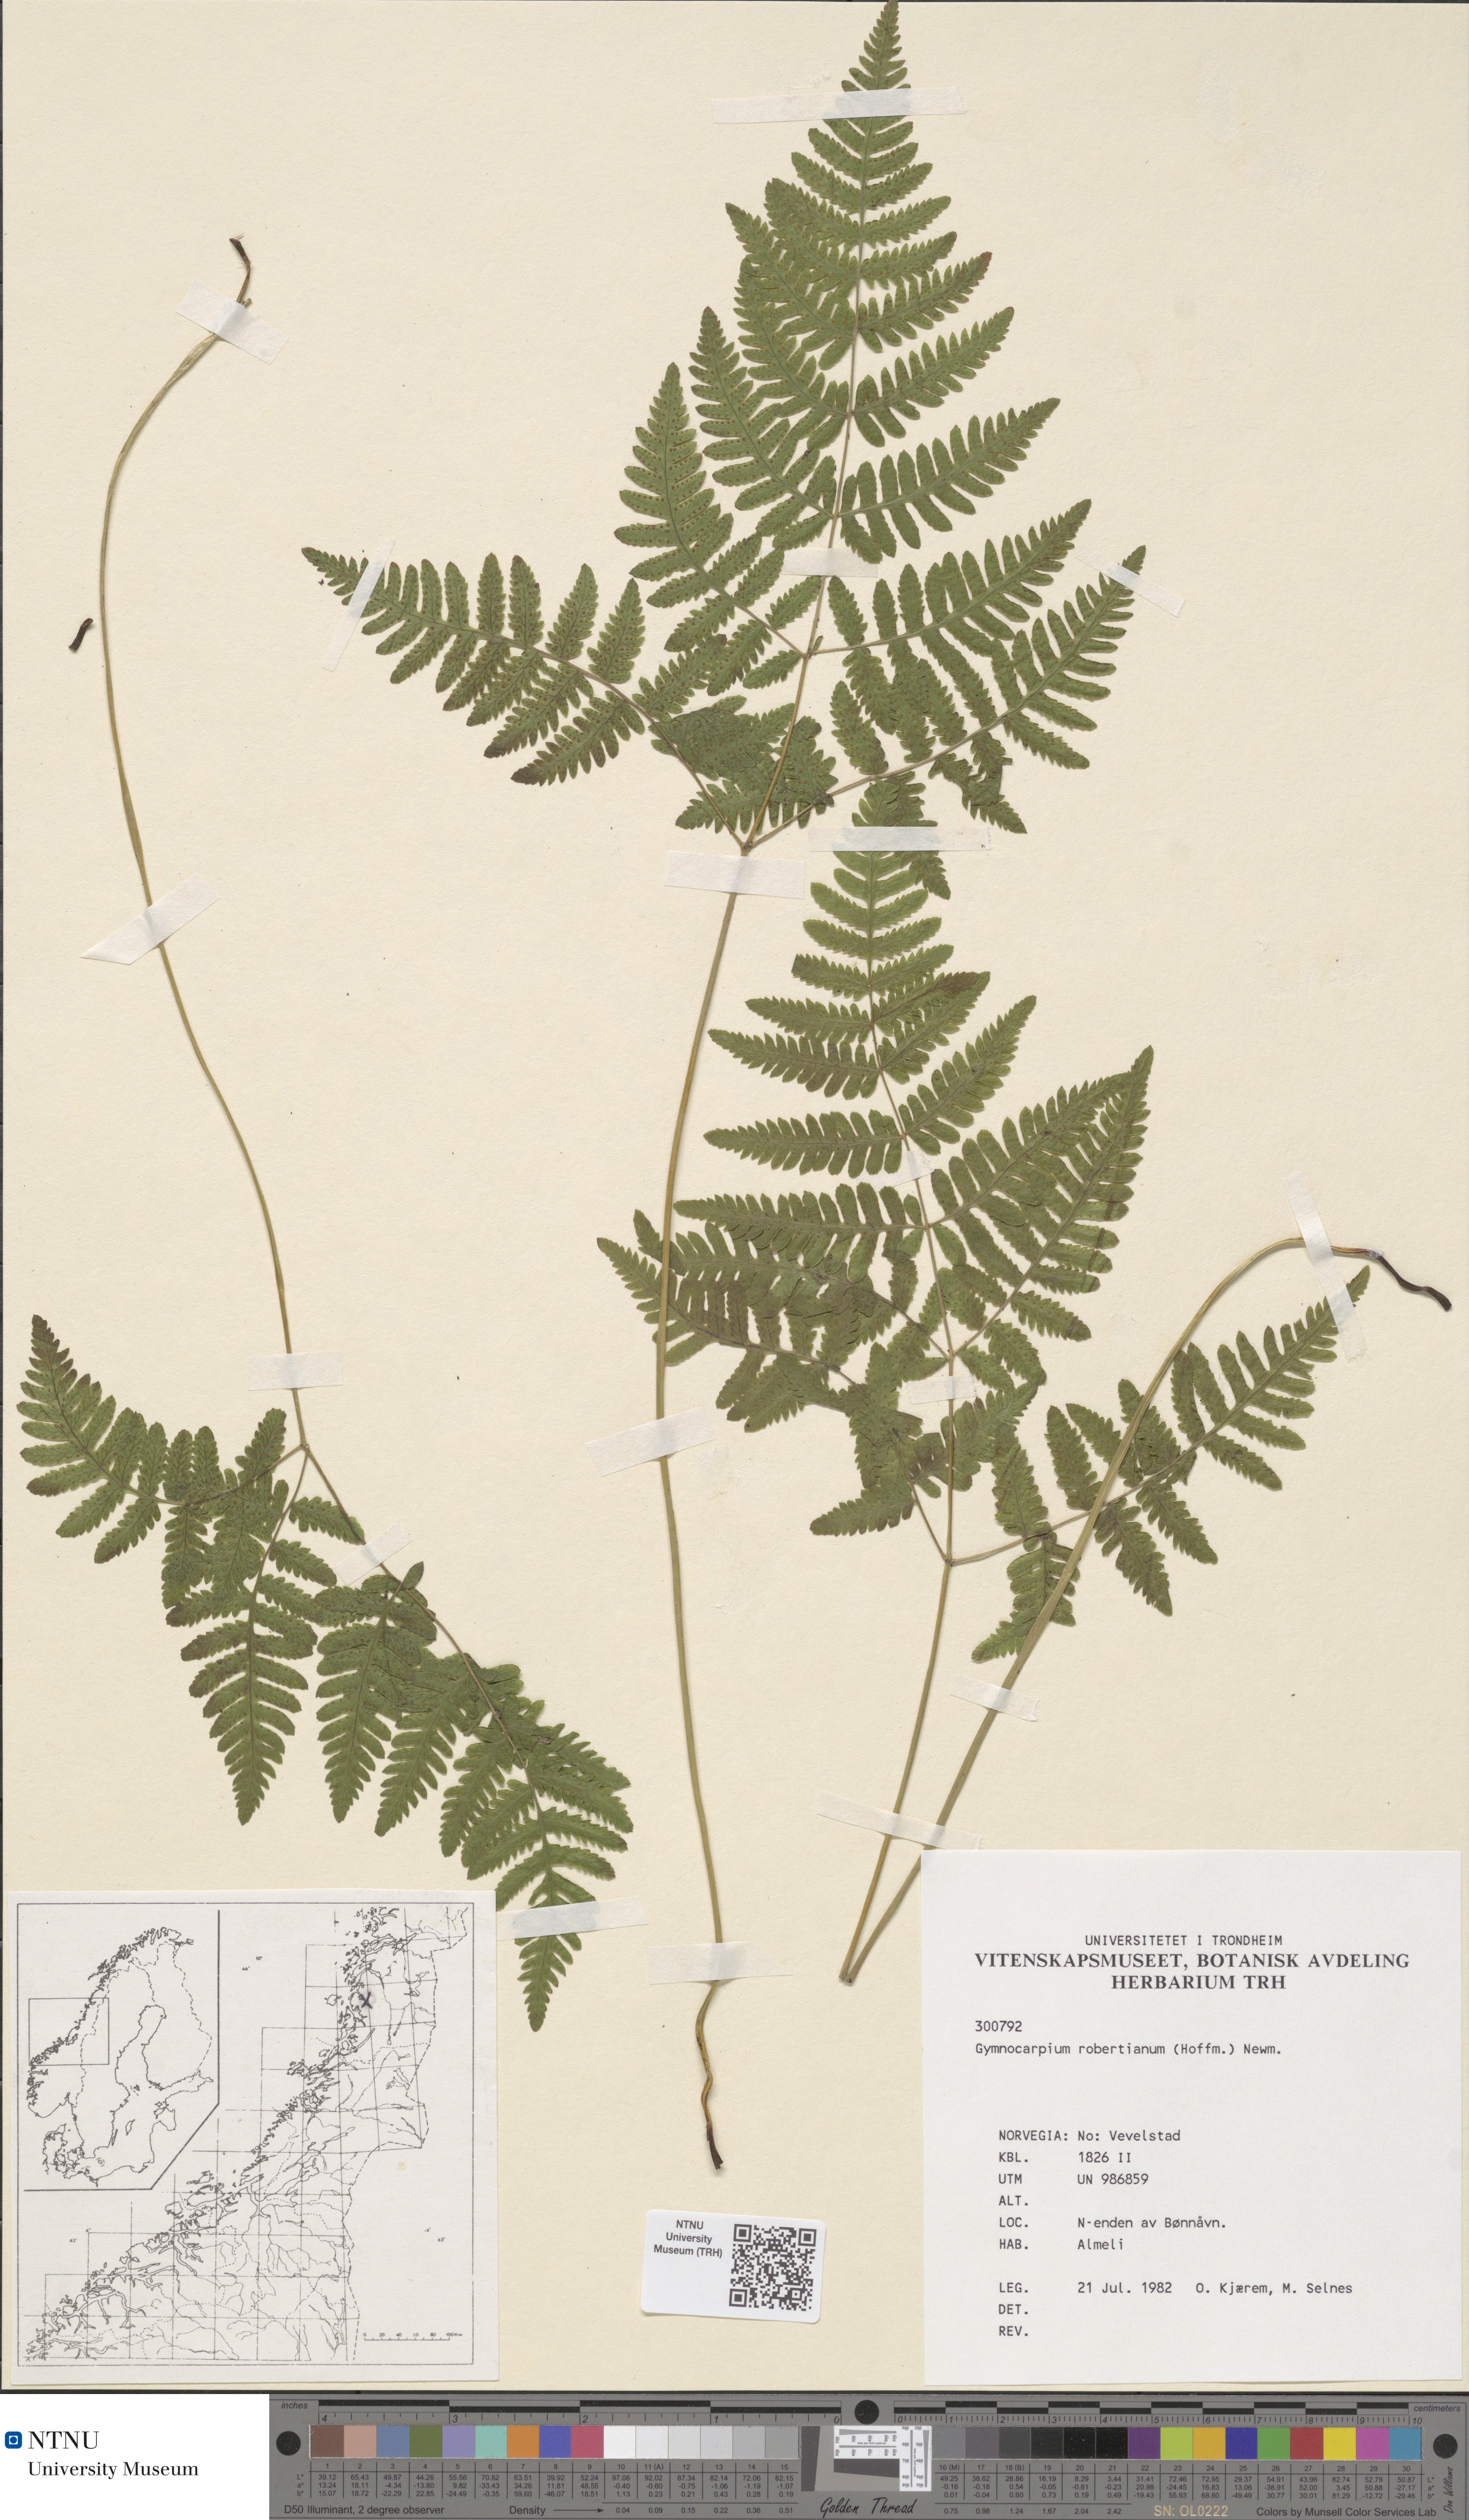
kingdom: Plantae
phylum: Tracheophyta
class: Polypodiopsida
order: Polypodiales
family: Cystopteridaceae
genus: Gymnocarpium
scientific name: Gymnocarpium robertianum
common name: Limestone fern
